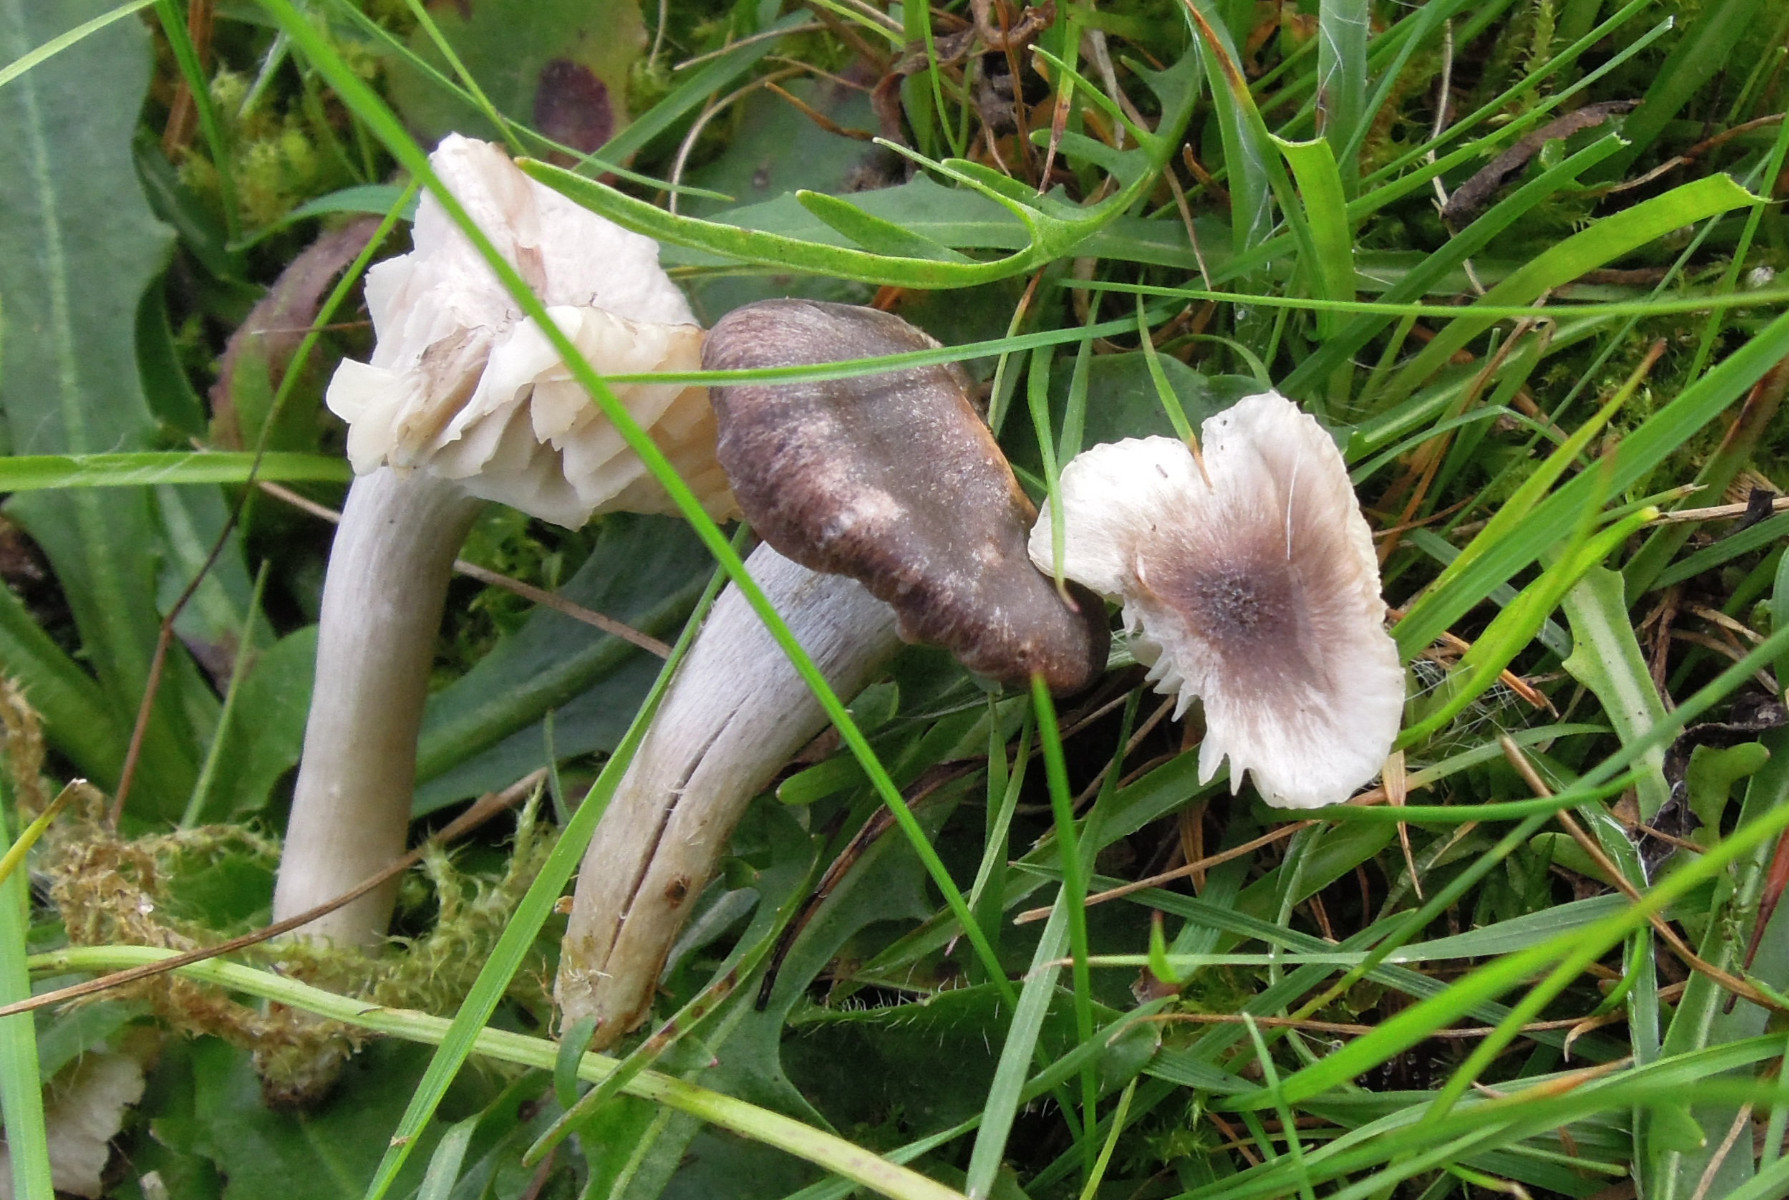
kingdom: Fungi
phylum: Basidiomycota
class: Agaricomycetes
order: Agaricales
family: Hygrophoraceae
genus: Cuphophyllus
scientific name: Cuphophyllus
